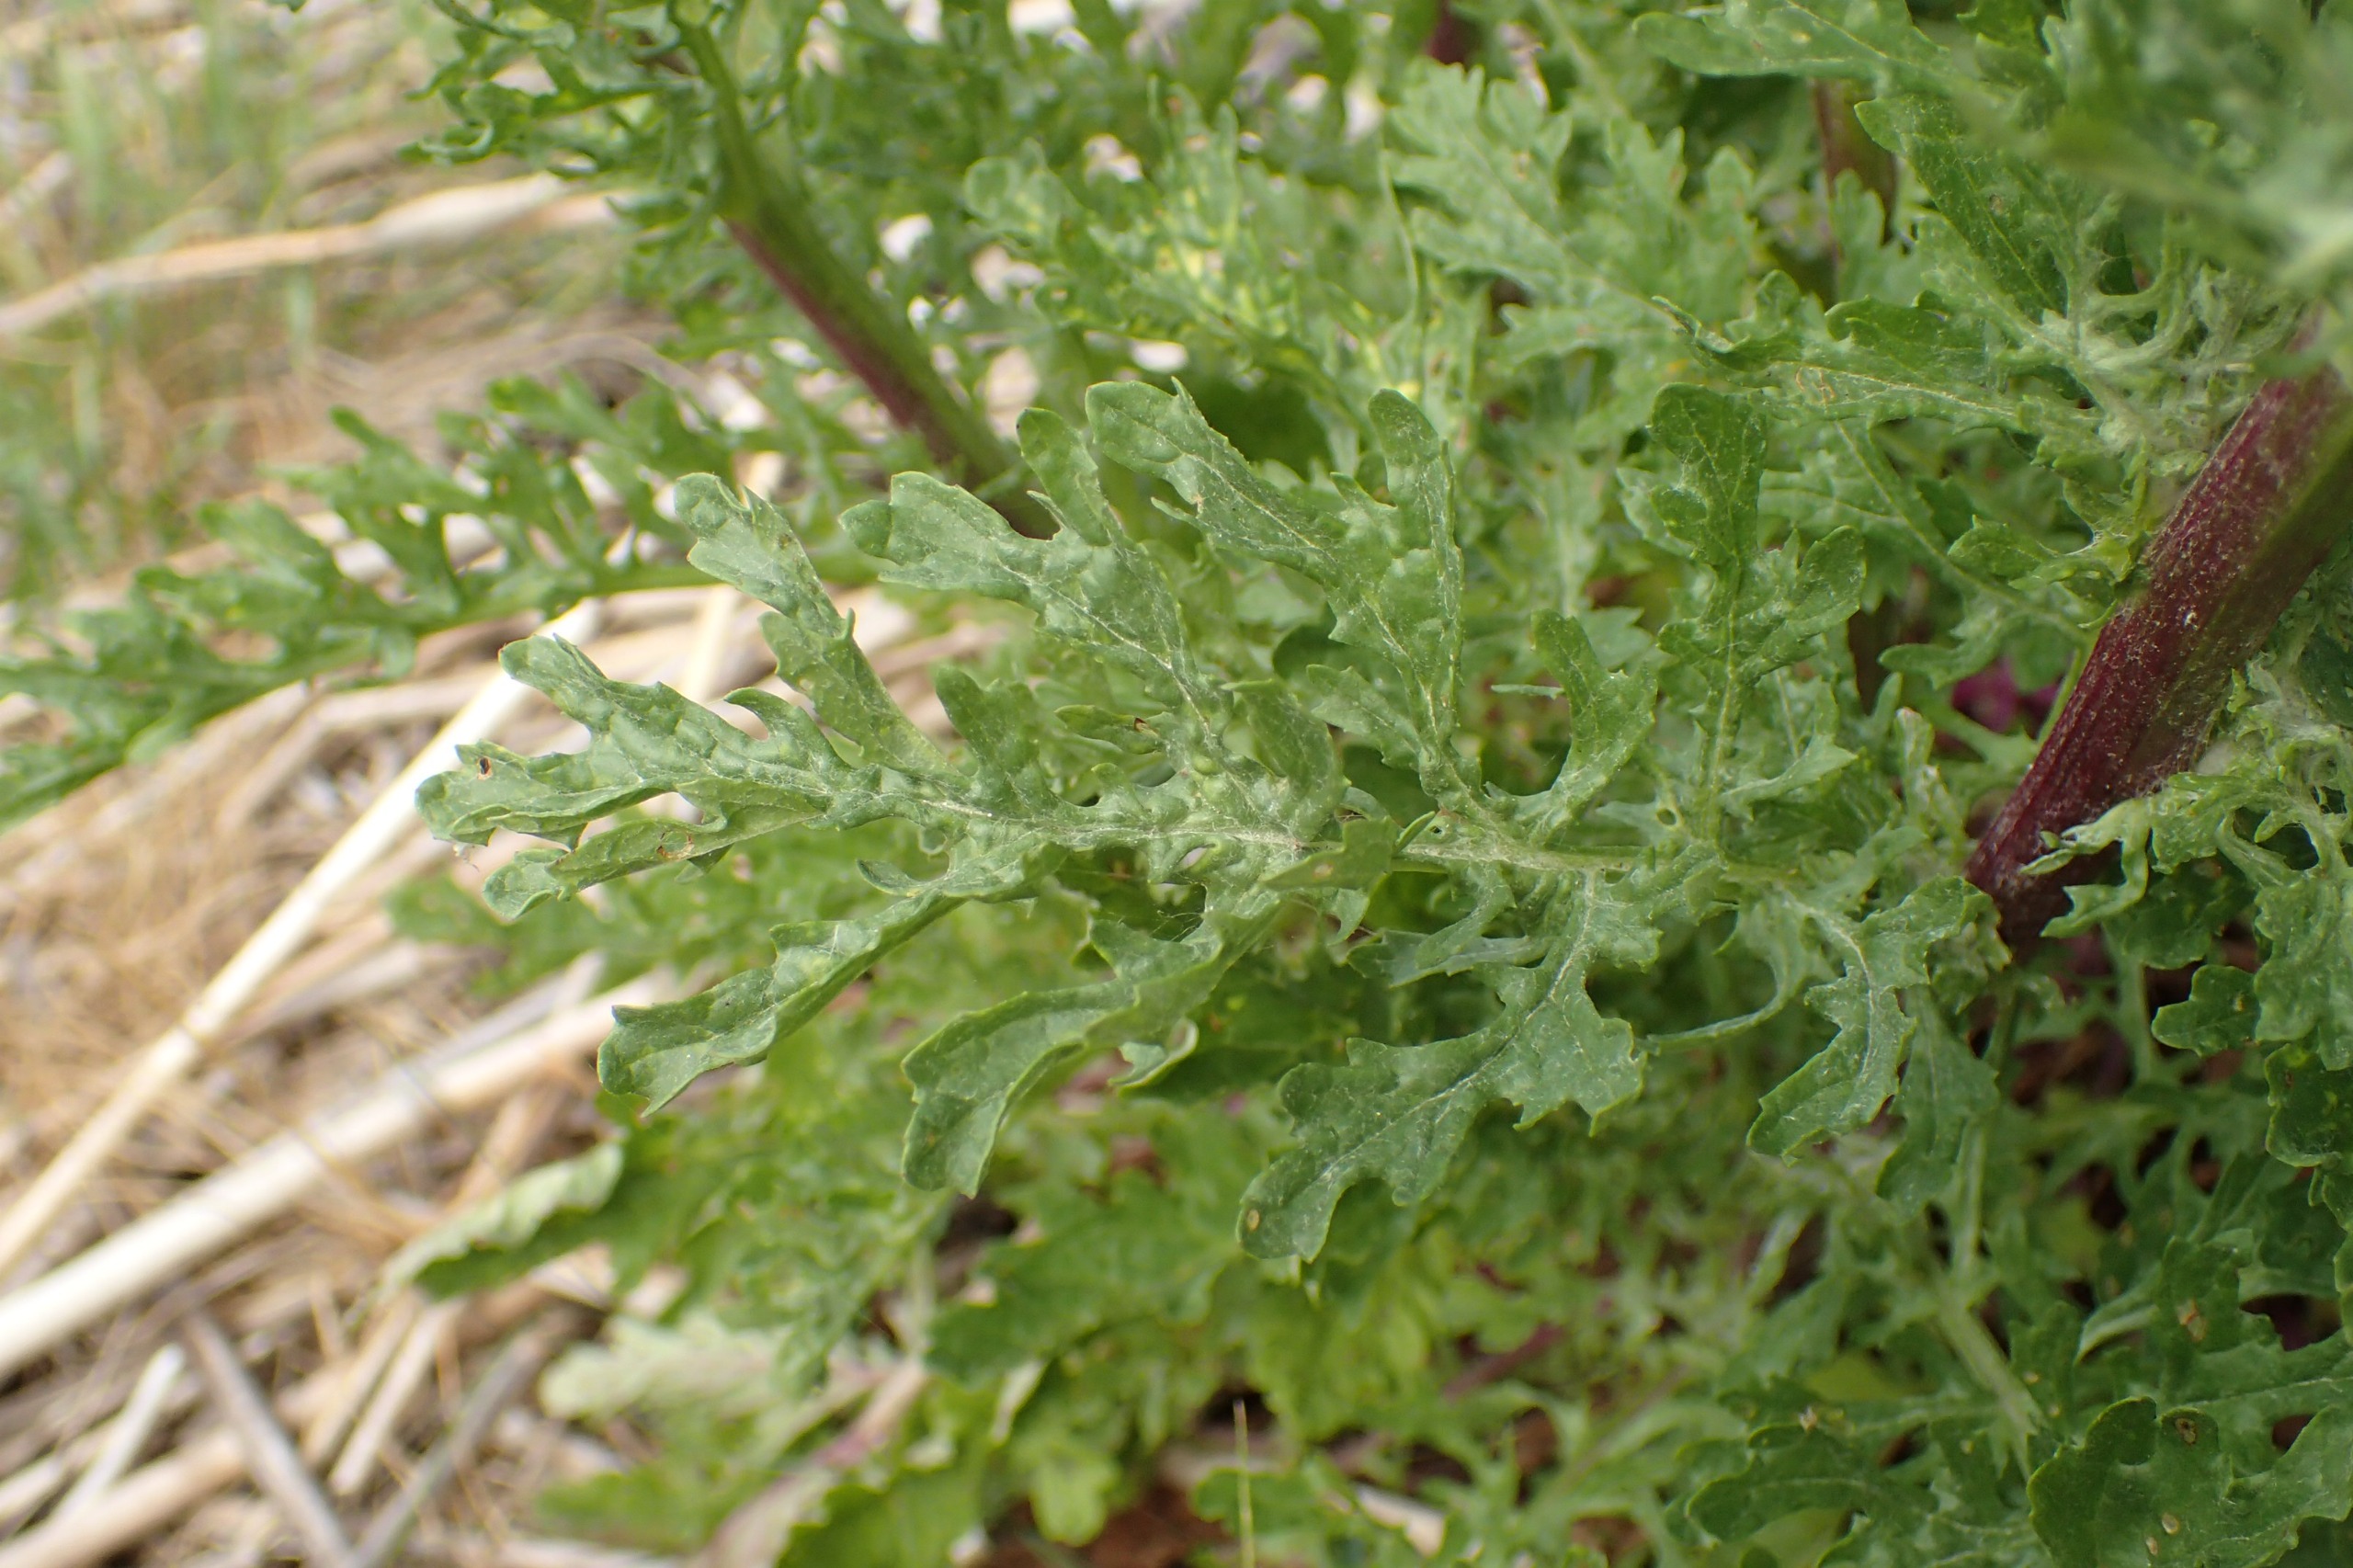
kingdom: Plantae
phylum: Tracheophyta
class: Magnoliopsida
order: Asterales
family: Asteraceae
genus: Jacobaea
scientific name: Jacobaea vulgaris
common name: Eng-brandbæger
